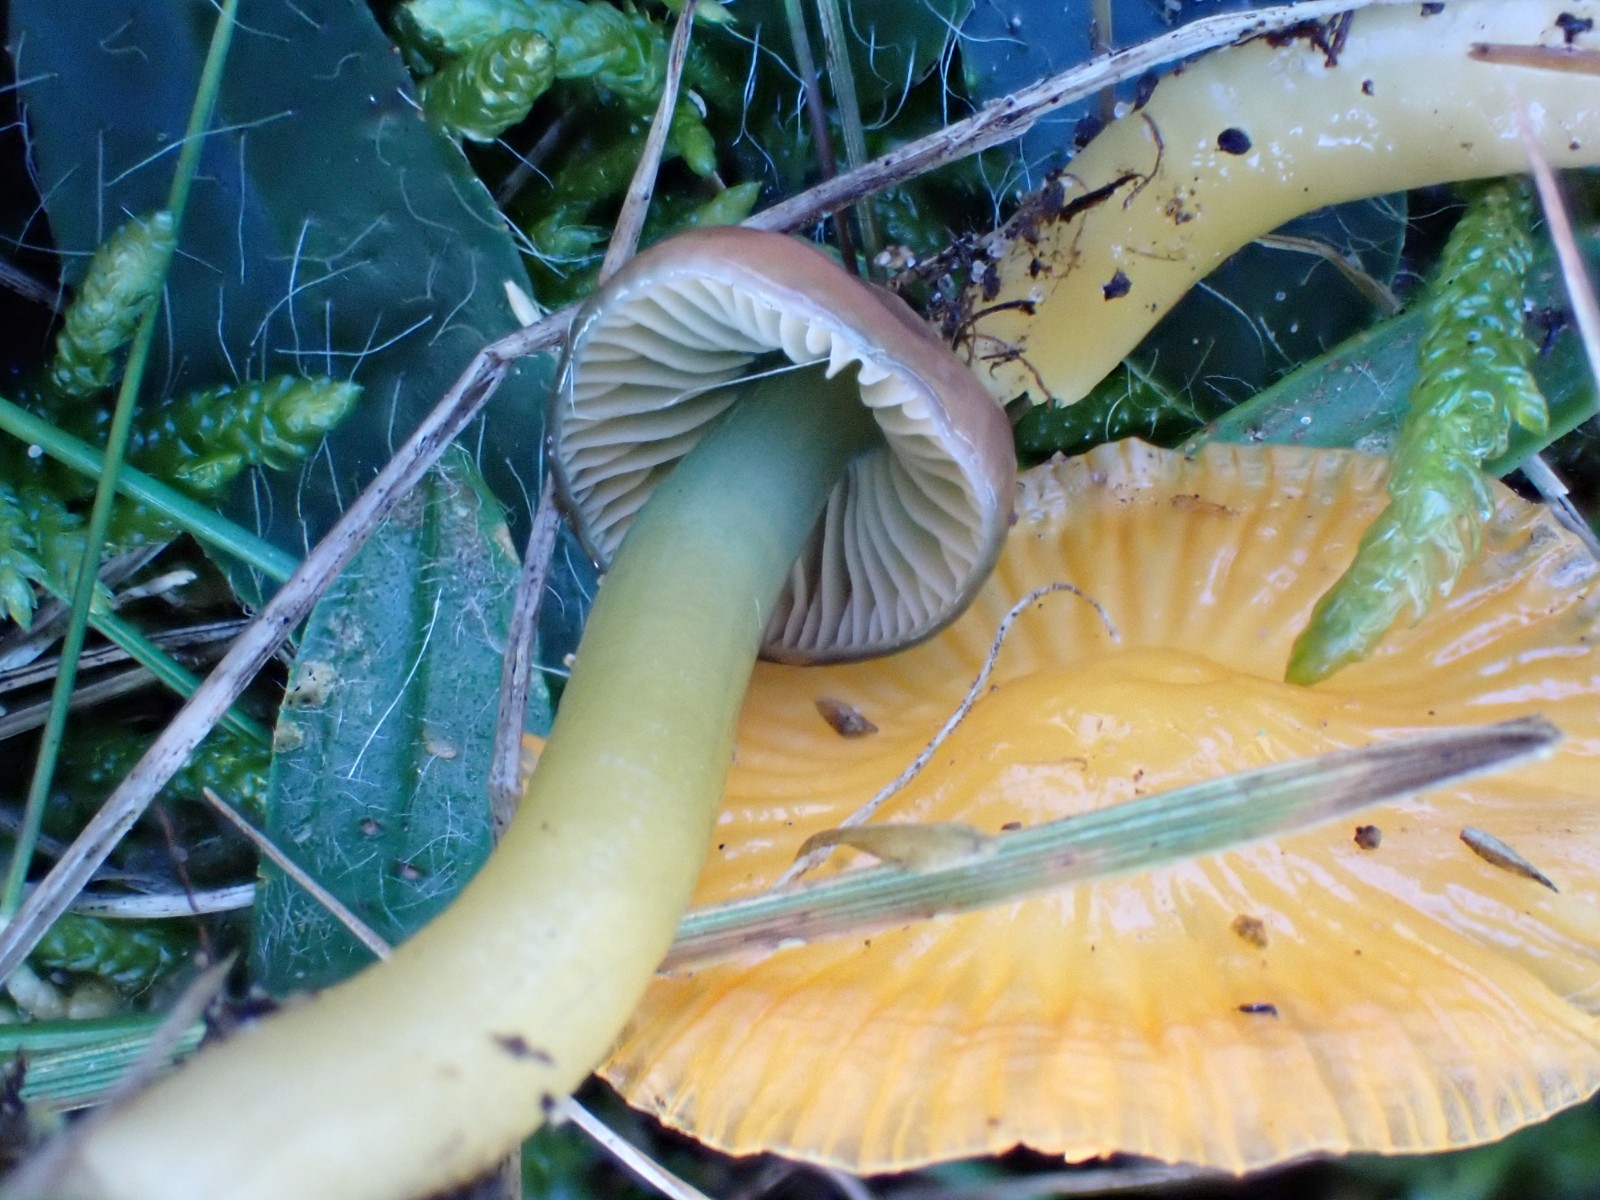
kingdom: Fungi
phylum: Basidiomycota
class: Agaricomycetes
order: Agaricales
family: Hygrophoraceae
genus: Gliophorus
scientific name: Gliophorus psittacinus
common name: papegøje-vokshat
